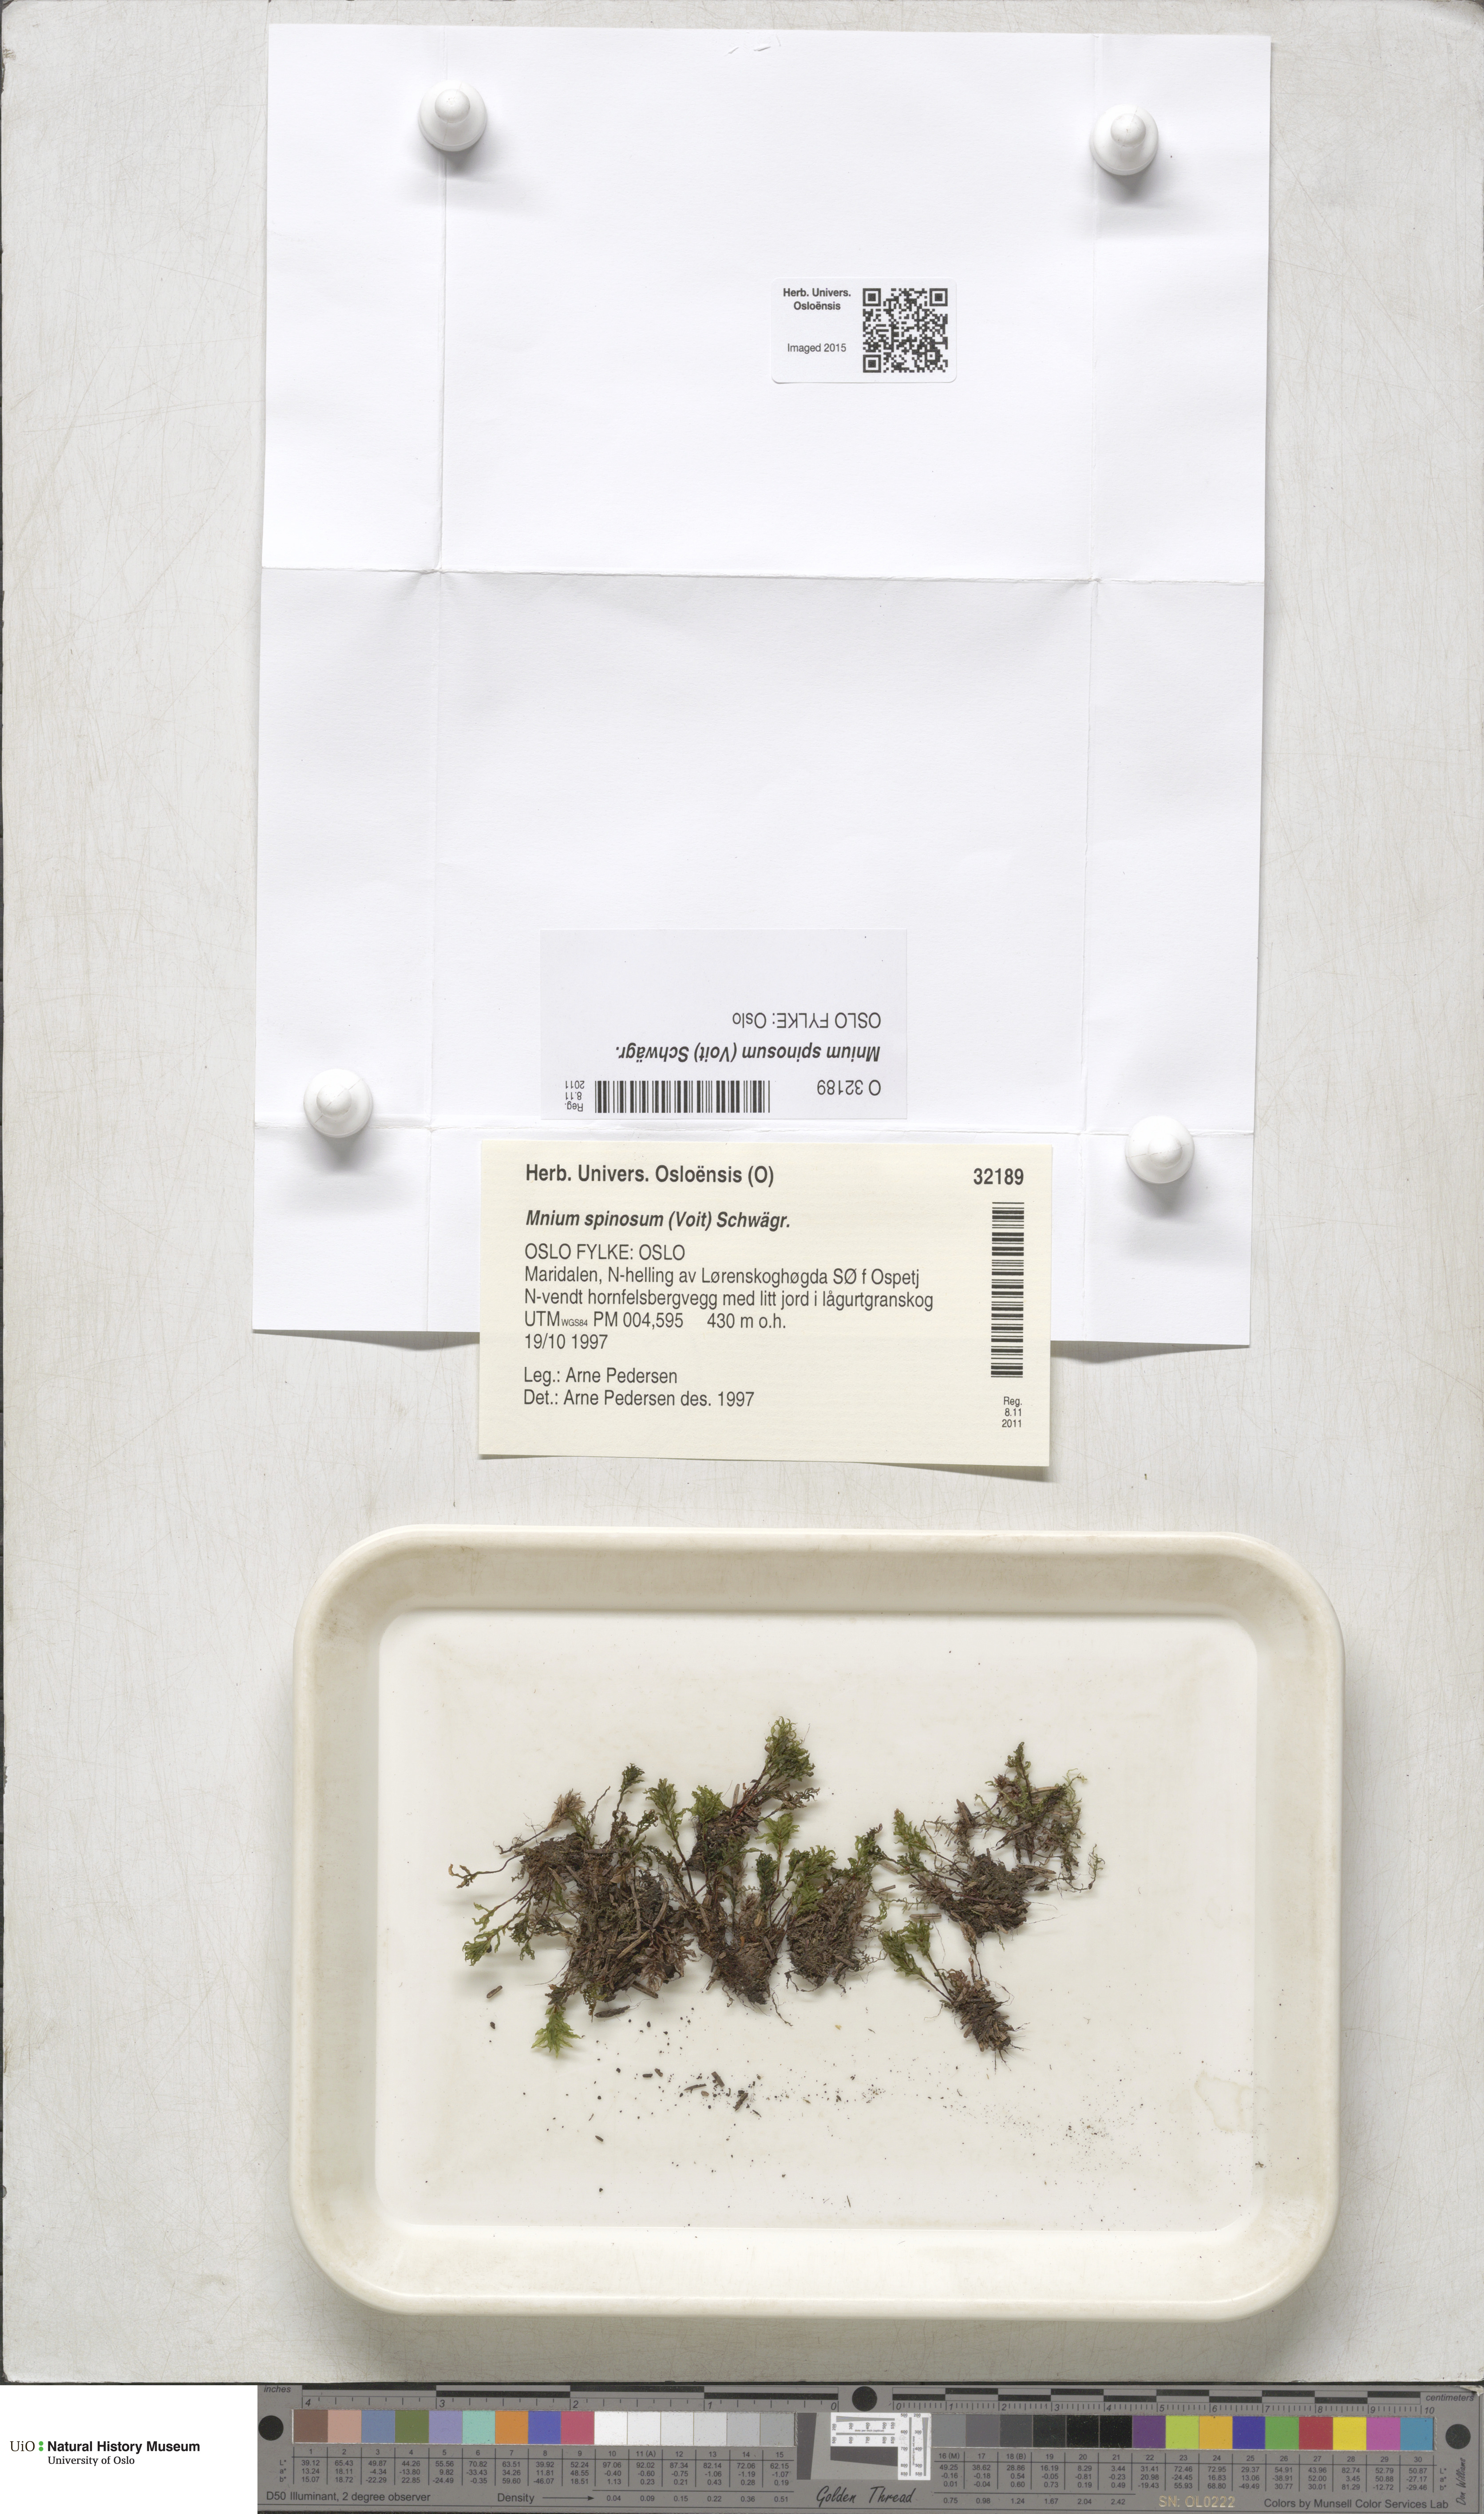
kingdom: Plantae
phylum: Bryophyta
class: Bryopsida
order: Bryales
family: Mniaceae
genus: Mnium
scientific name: Mnium spinosum
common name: Spinose thyme-moss
